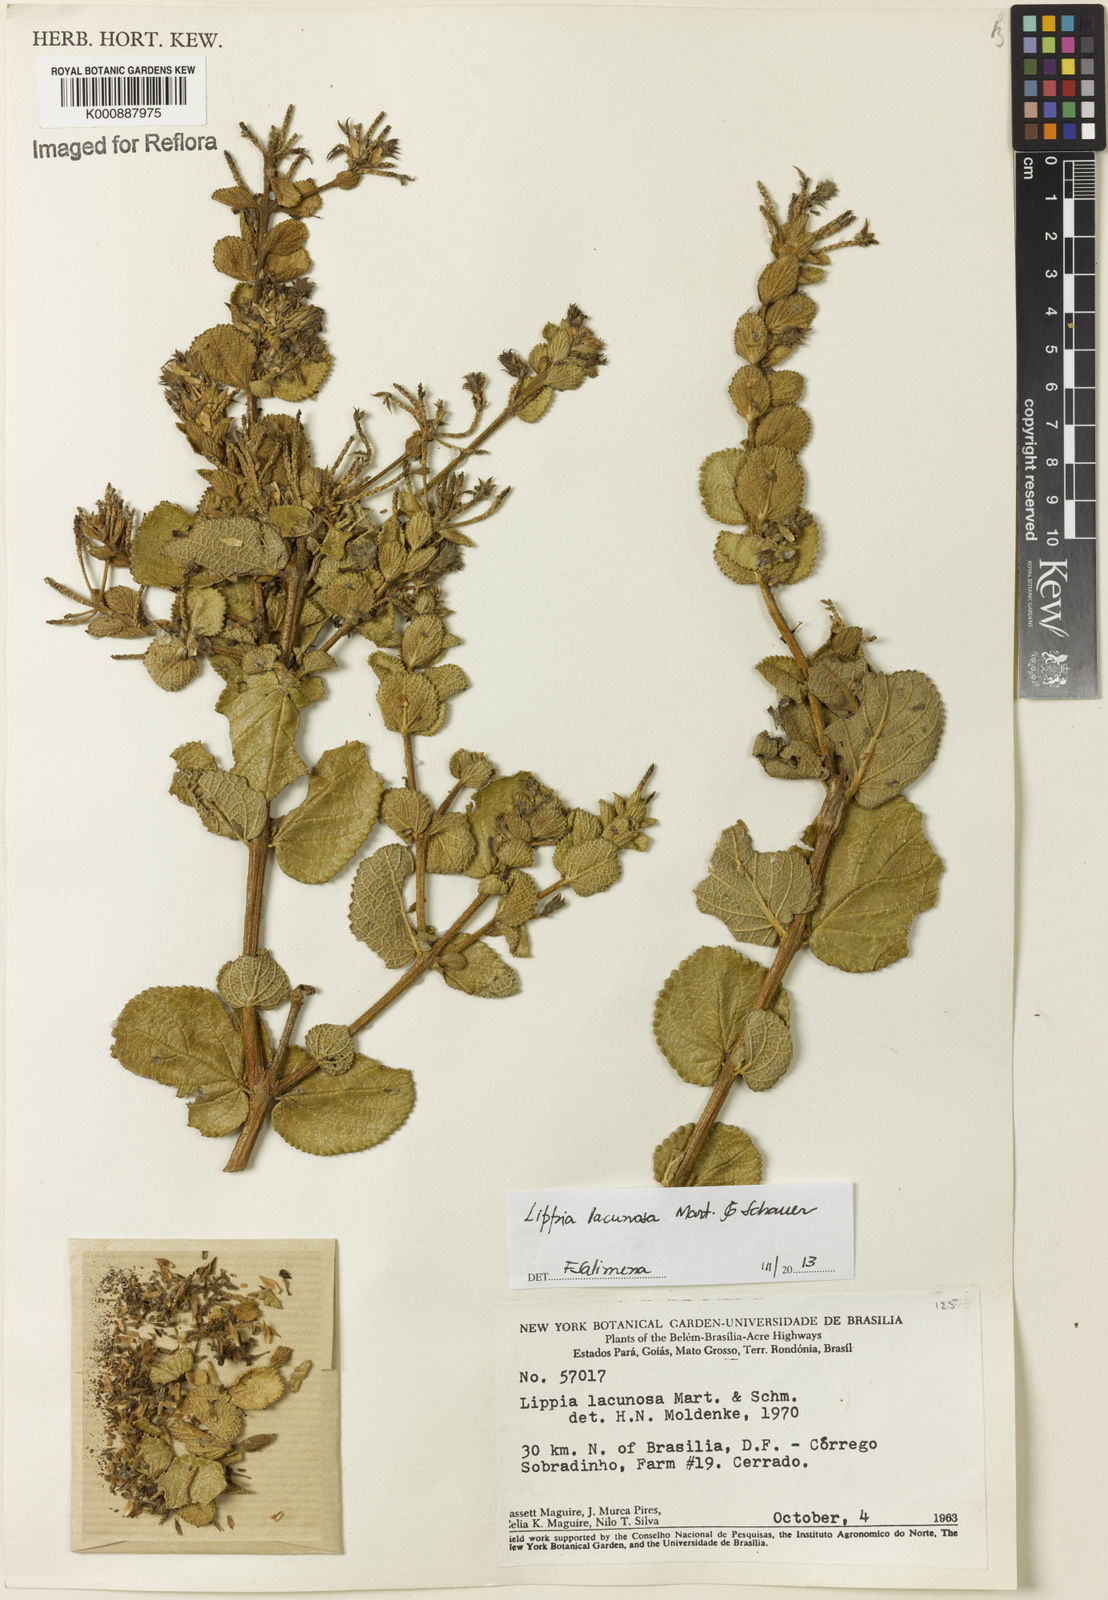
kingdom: Plantae
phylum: Tracheophyta
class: Magnoliopsida
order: Lamiales
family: Verbenaceae
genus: Lippia
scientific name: Lippia lacunosa
